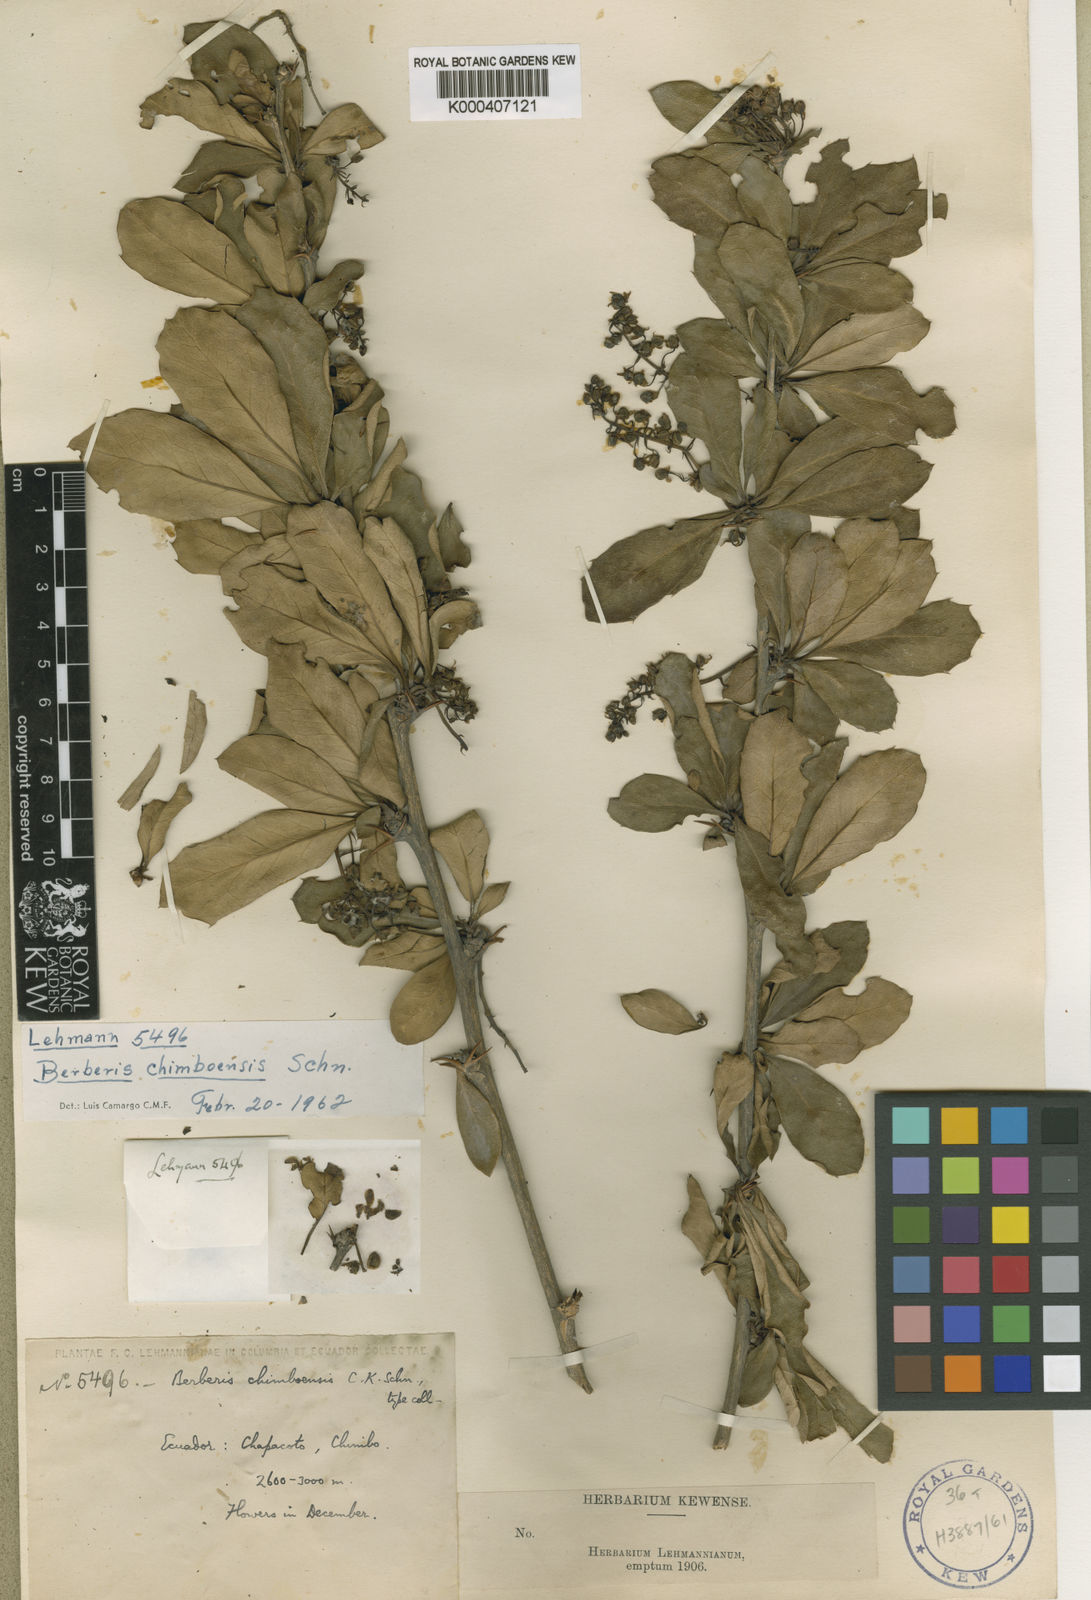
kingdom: Plantae
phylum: Tracheophyta
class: Magnoliopsida
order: Ranunculales
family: Berberidaceae
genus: Berberis
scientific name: Berberis chimboensis
